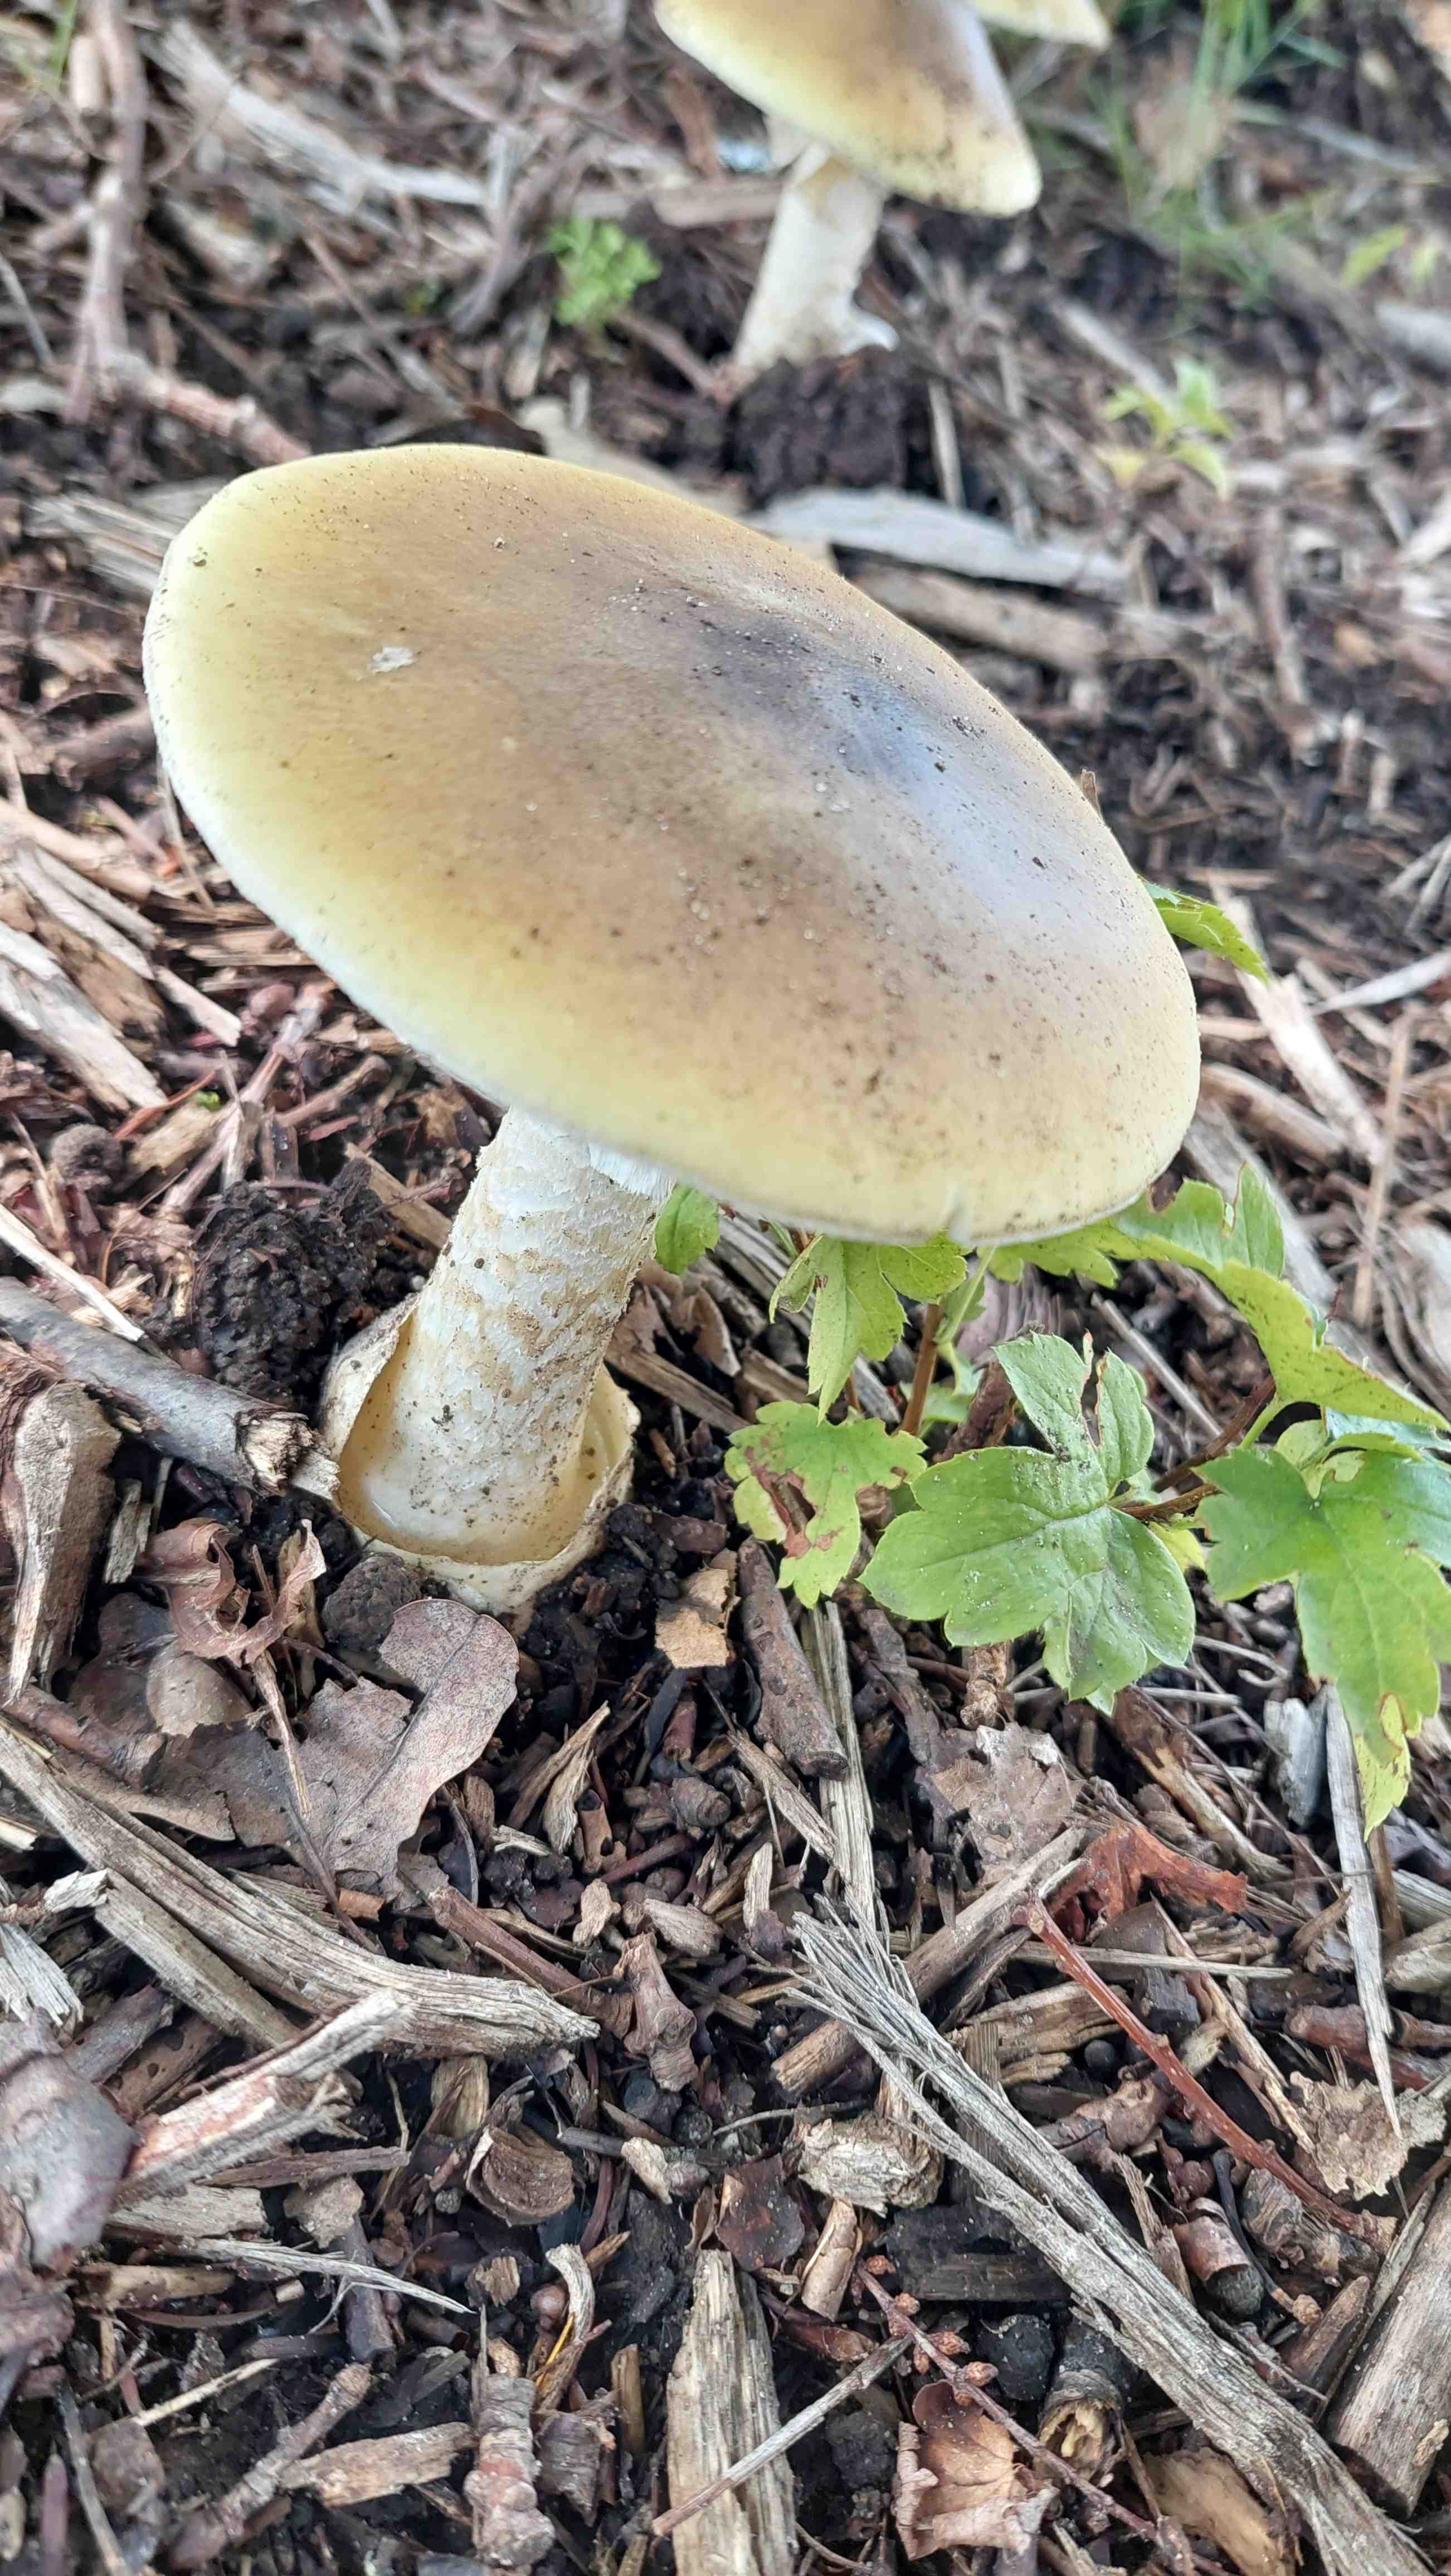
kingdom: Fungi
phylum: Basidiomycota
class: Agaricomycetes
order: Agaricales
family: Amanitaceae
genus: Amanita
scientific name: Amanita phalloides
